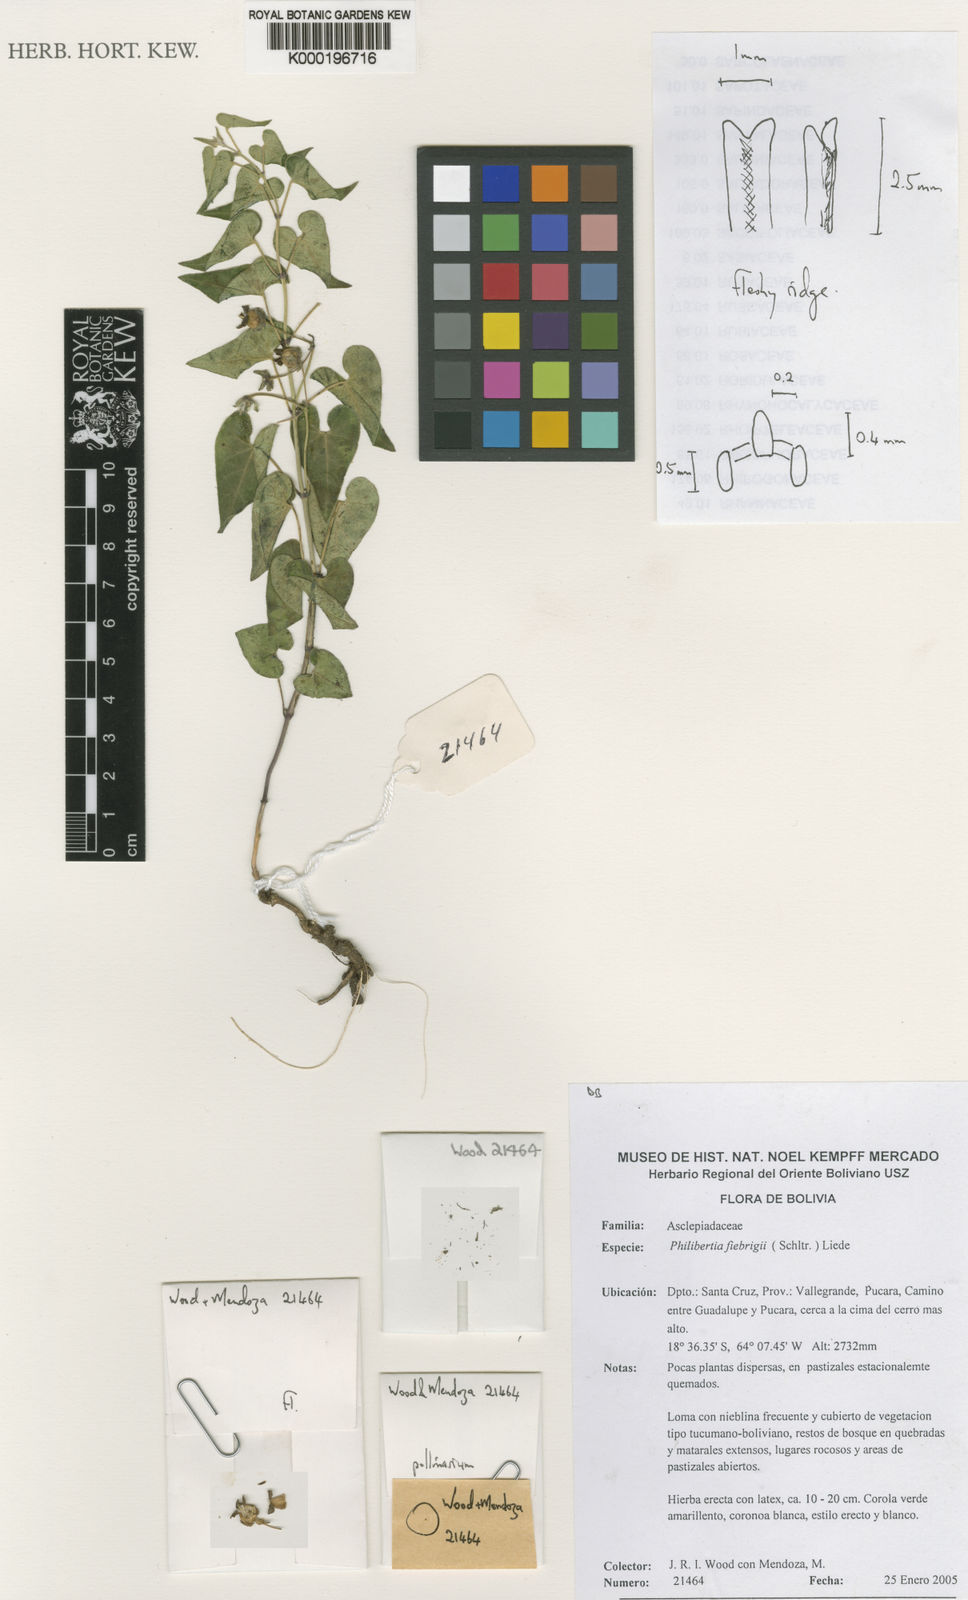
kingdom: Plantae
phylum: Tracheophyta
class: Magnoliopsida
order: Gentianales
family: Apocynaceae
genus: Philibertia
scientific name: Philibertia urceolata
